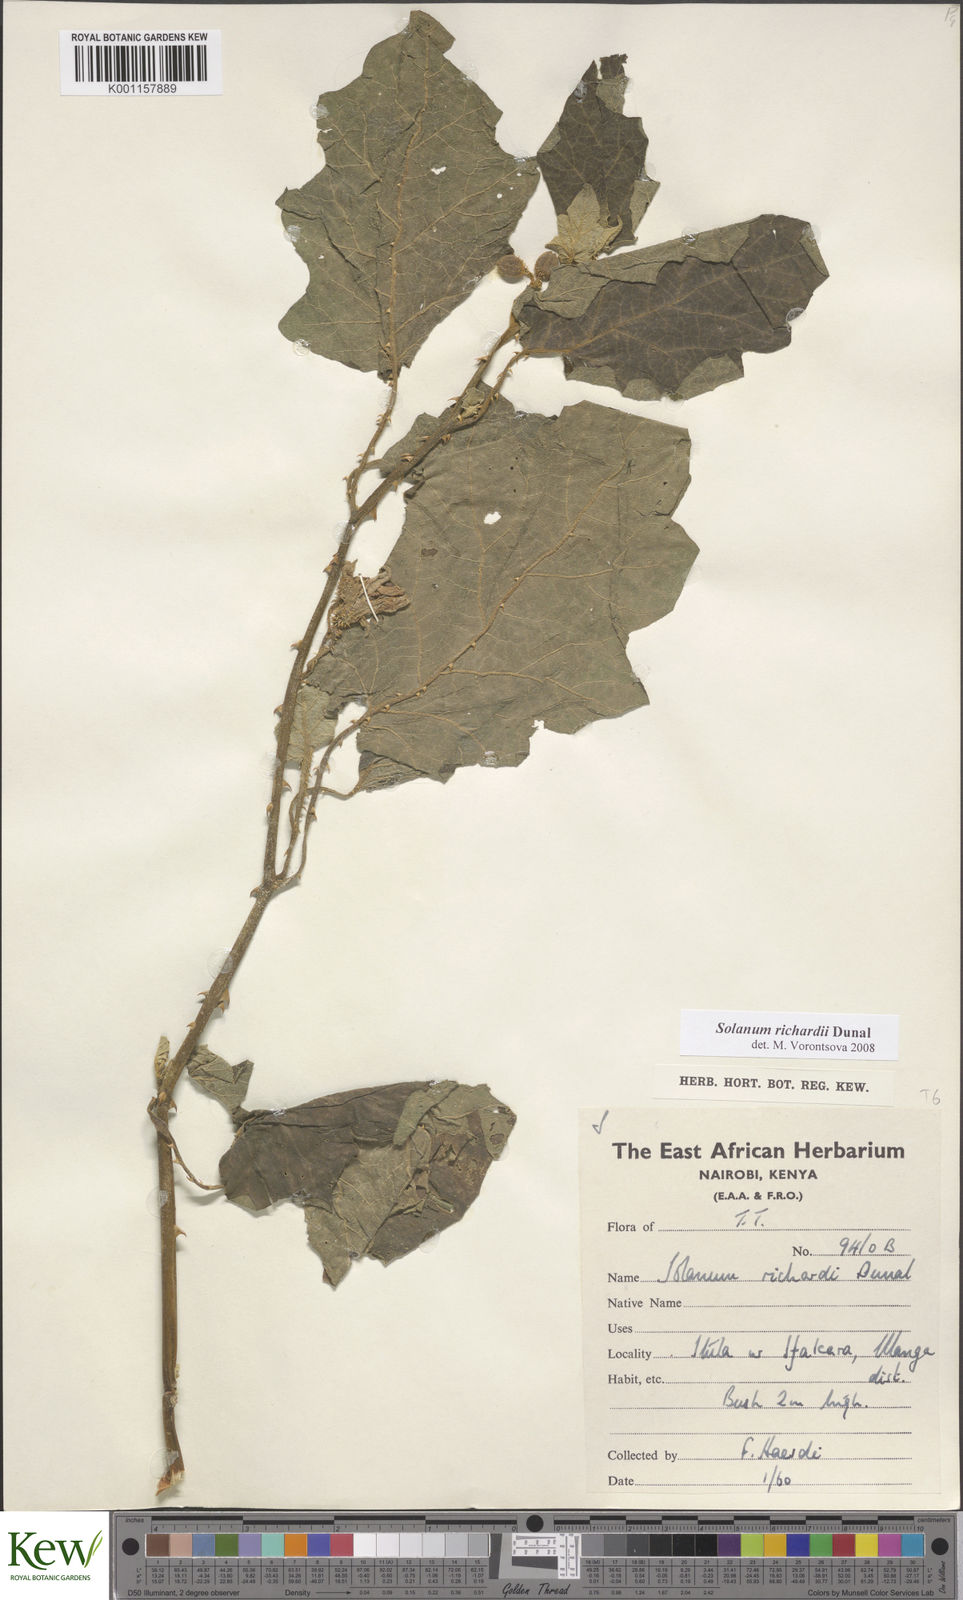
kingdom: Plantae
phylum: Tracheophyta
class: Magnoliopsida
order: Solanales
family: Solanaceae
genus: Solanum
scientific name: Solanum
